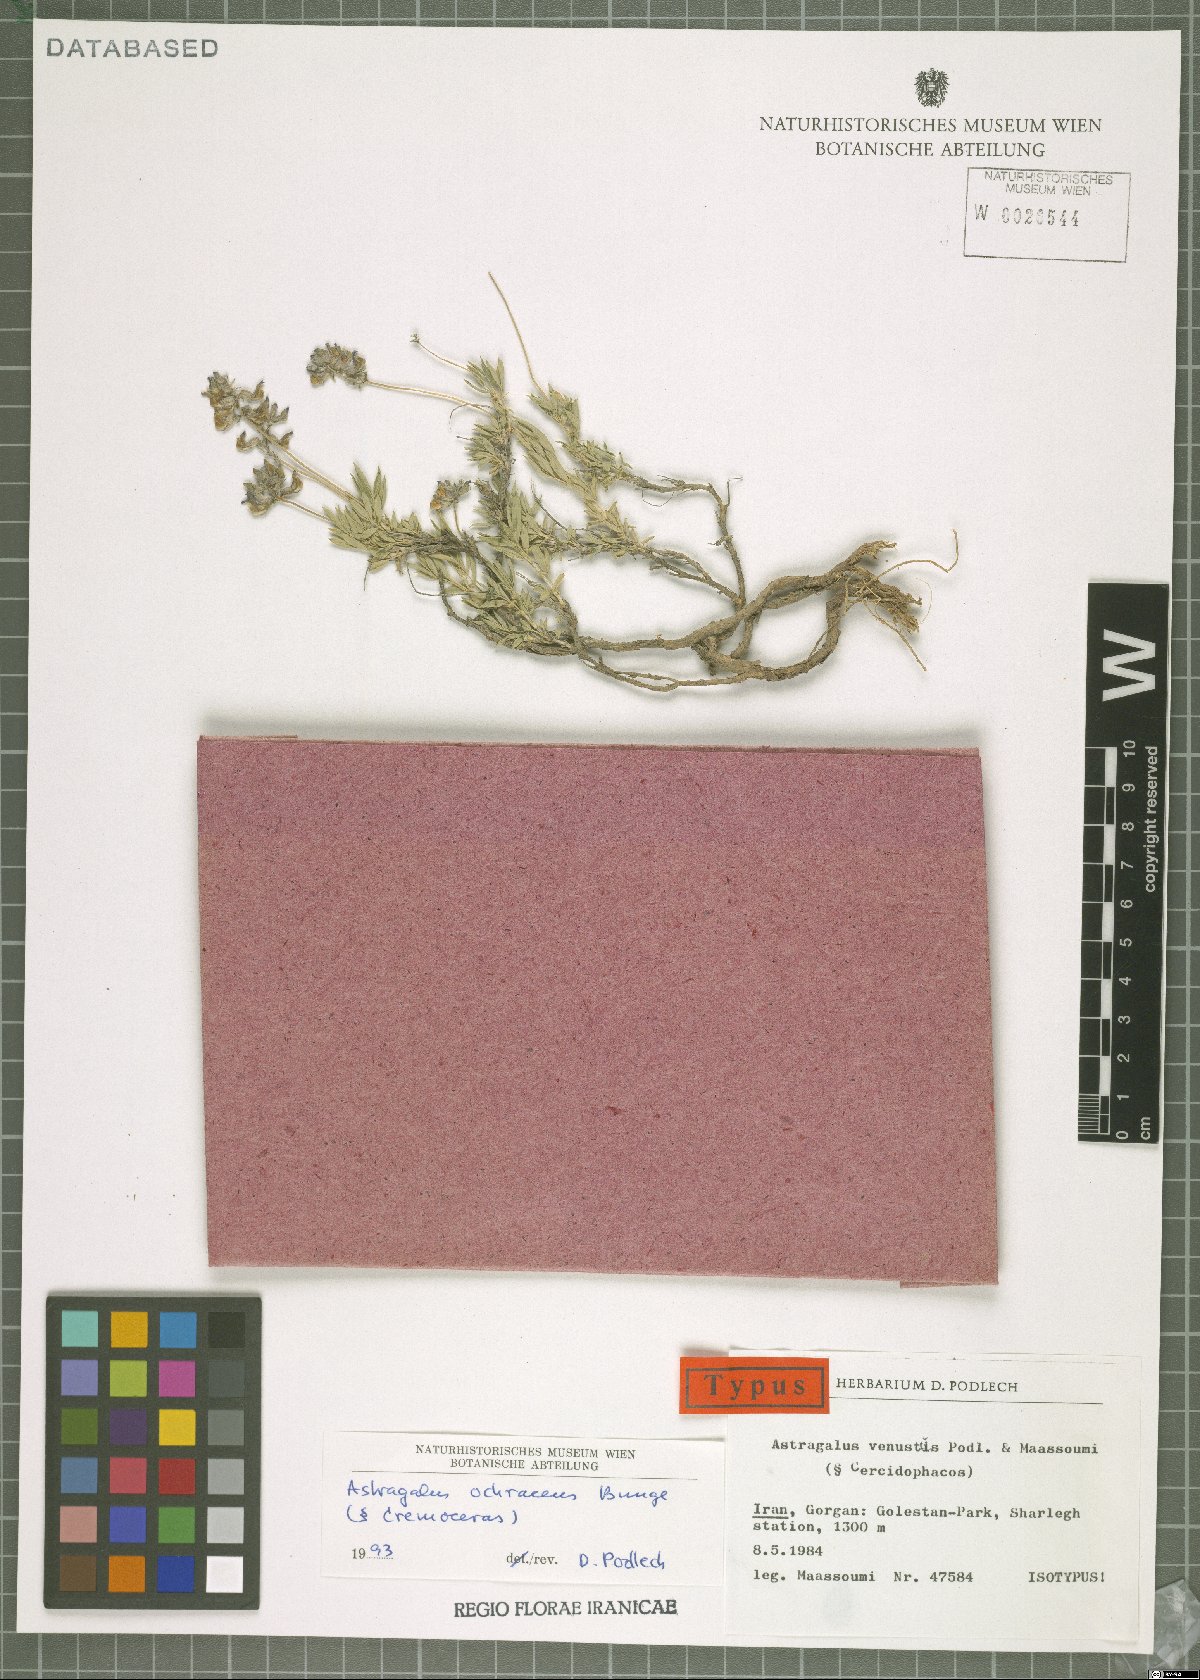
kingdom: Plantae
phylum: Tracheophyta
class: Magnoliopsida
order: Fabales
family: Fabaceae
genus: Astragalus
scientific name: Astragalus ochreatus
